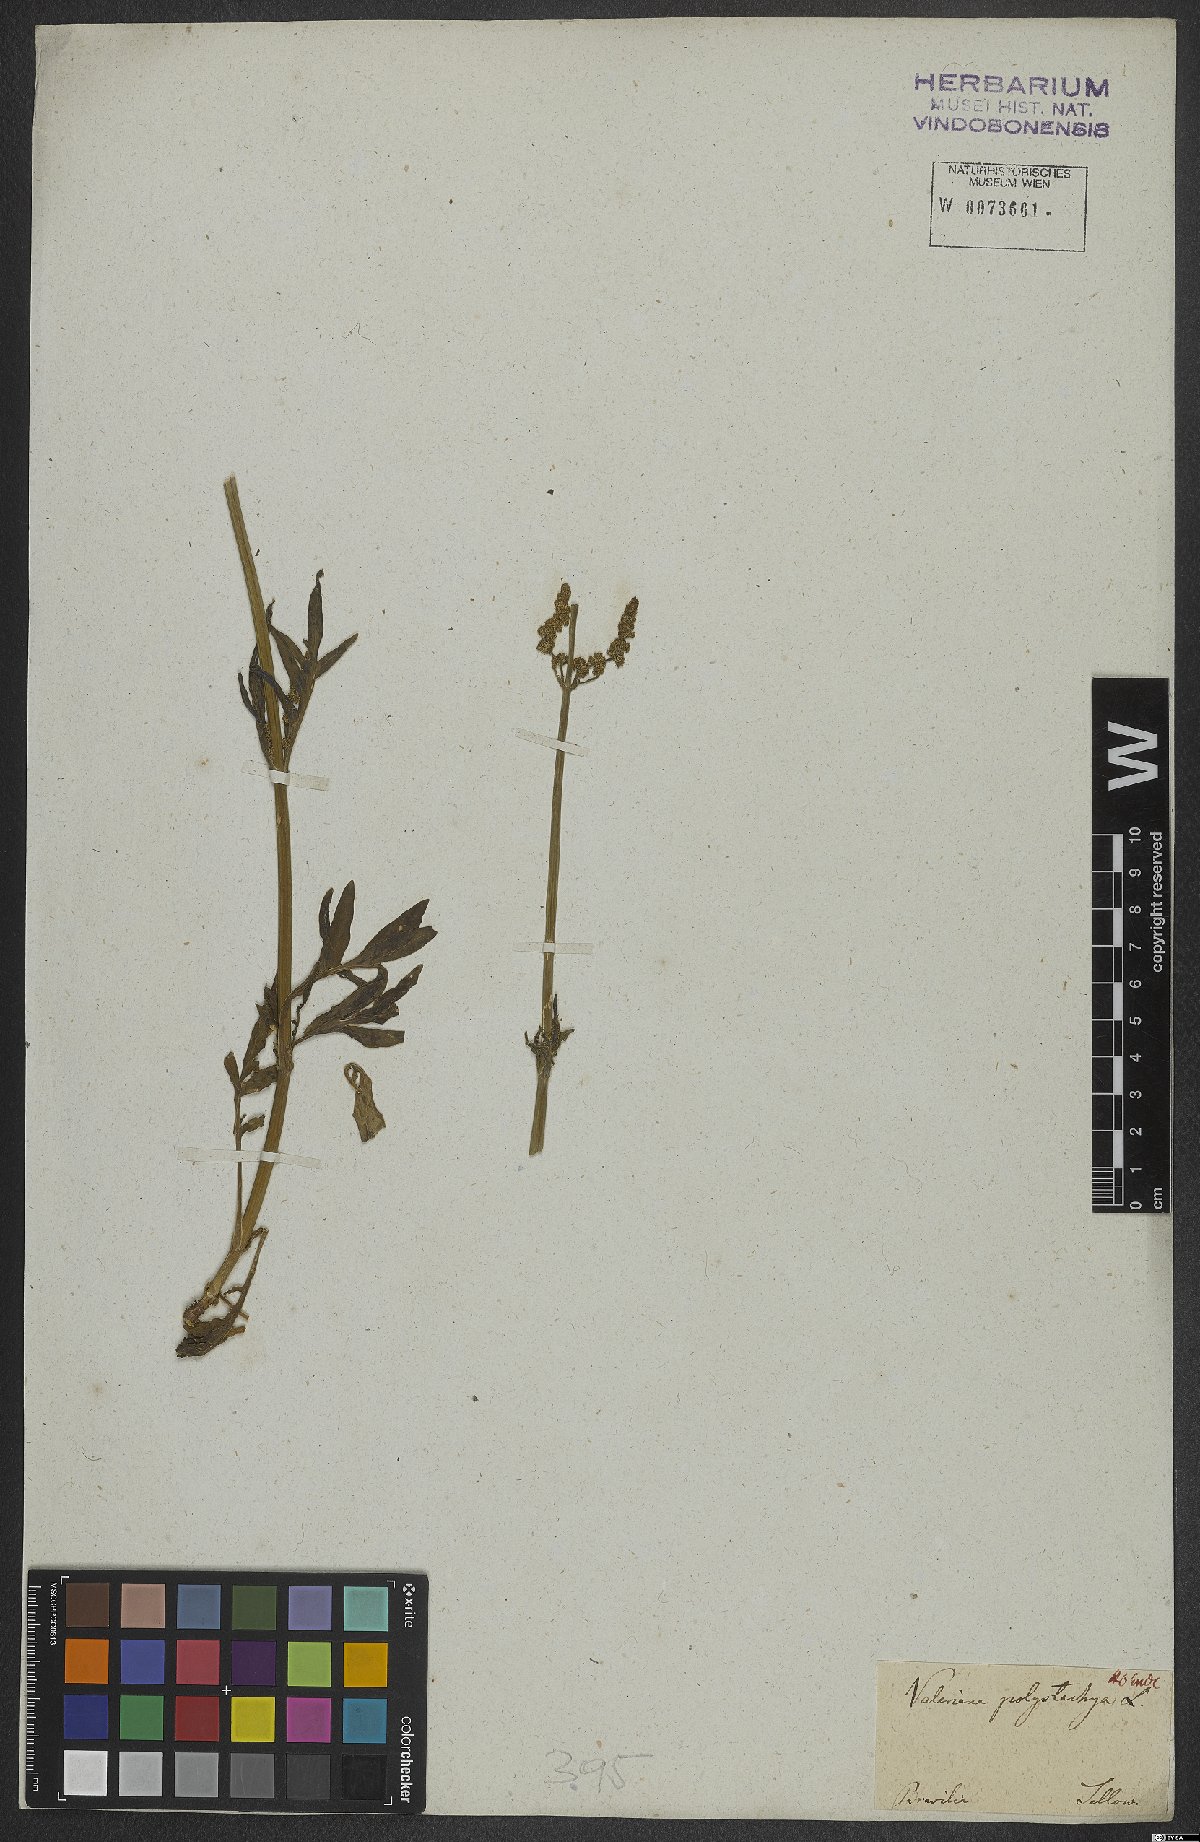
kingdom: Plantae
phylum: Tracheophyta
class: Magnoliopsida
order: Dipsacales
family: Caprifoliaceae
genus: Valeriana
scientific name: Valeriana polystachya
